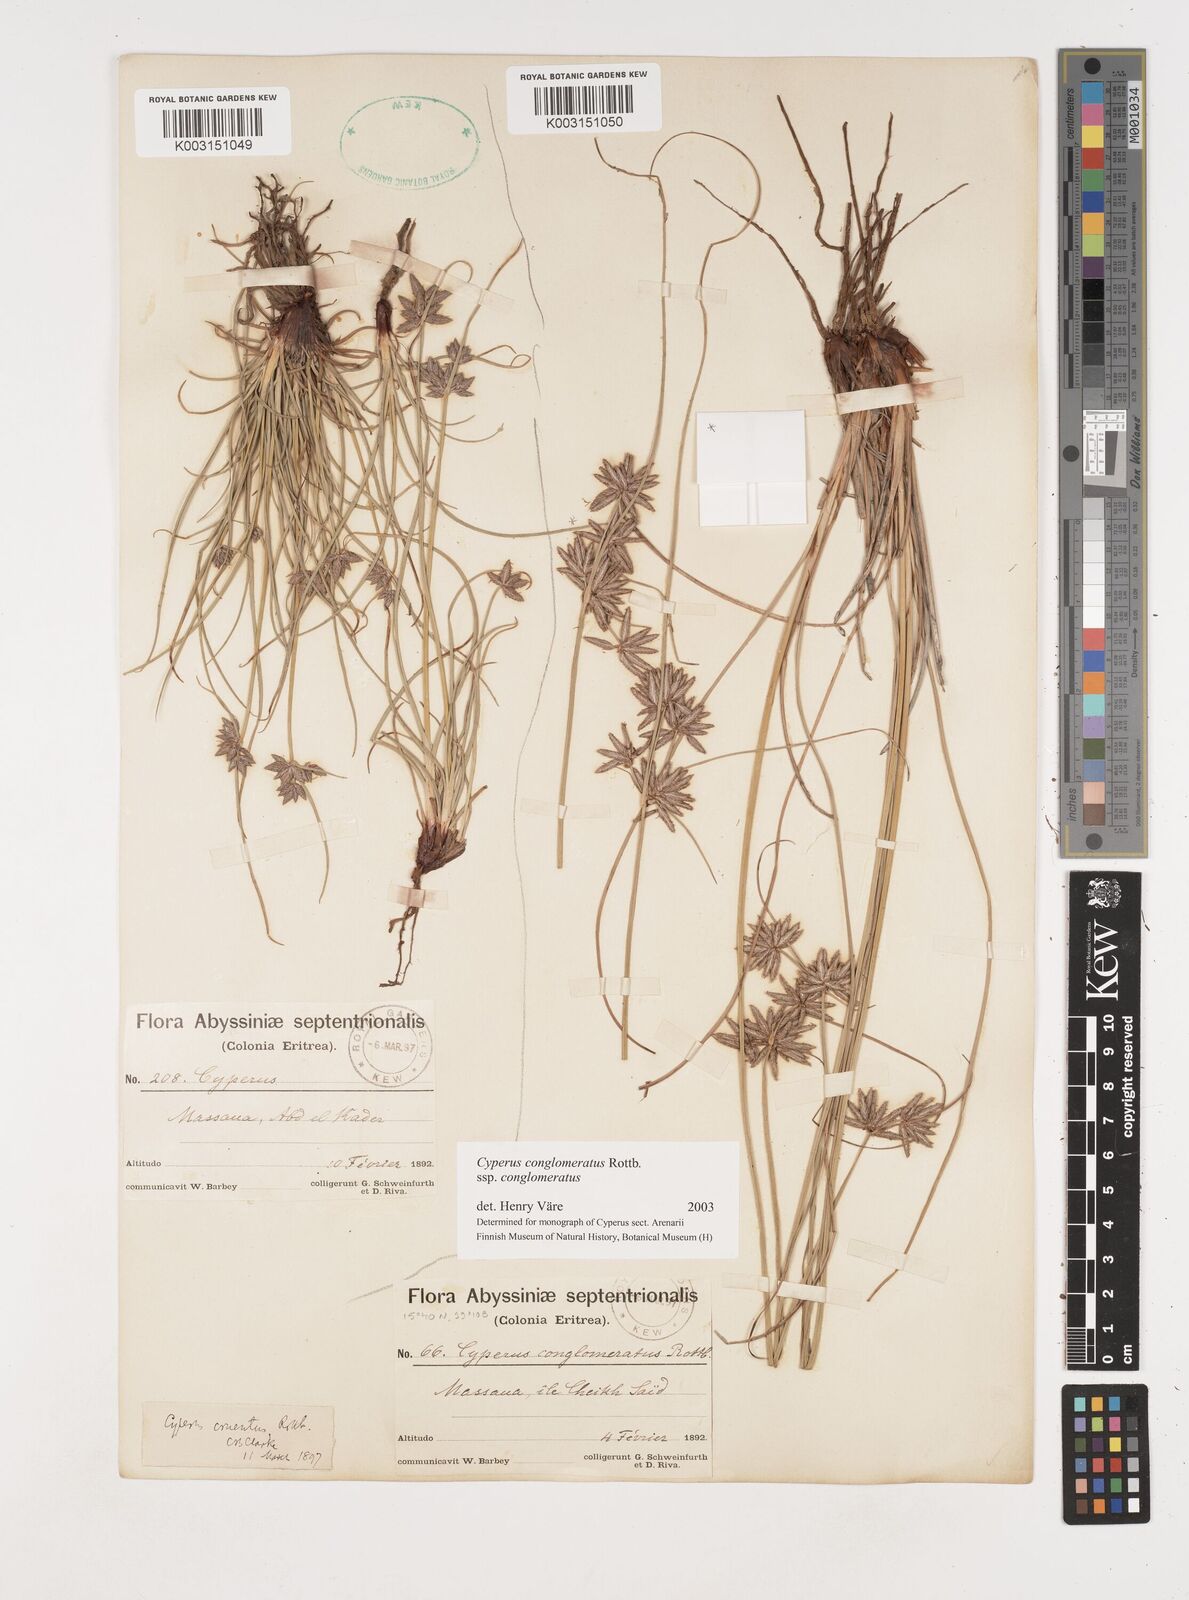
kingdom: Plantae
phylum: Tracheophyta
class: Liliopsida
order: Poales
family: Cyperaceae
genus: Cyperus
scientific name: Cyperus conglomeratus
